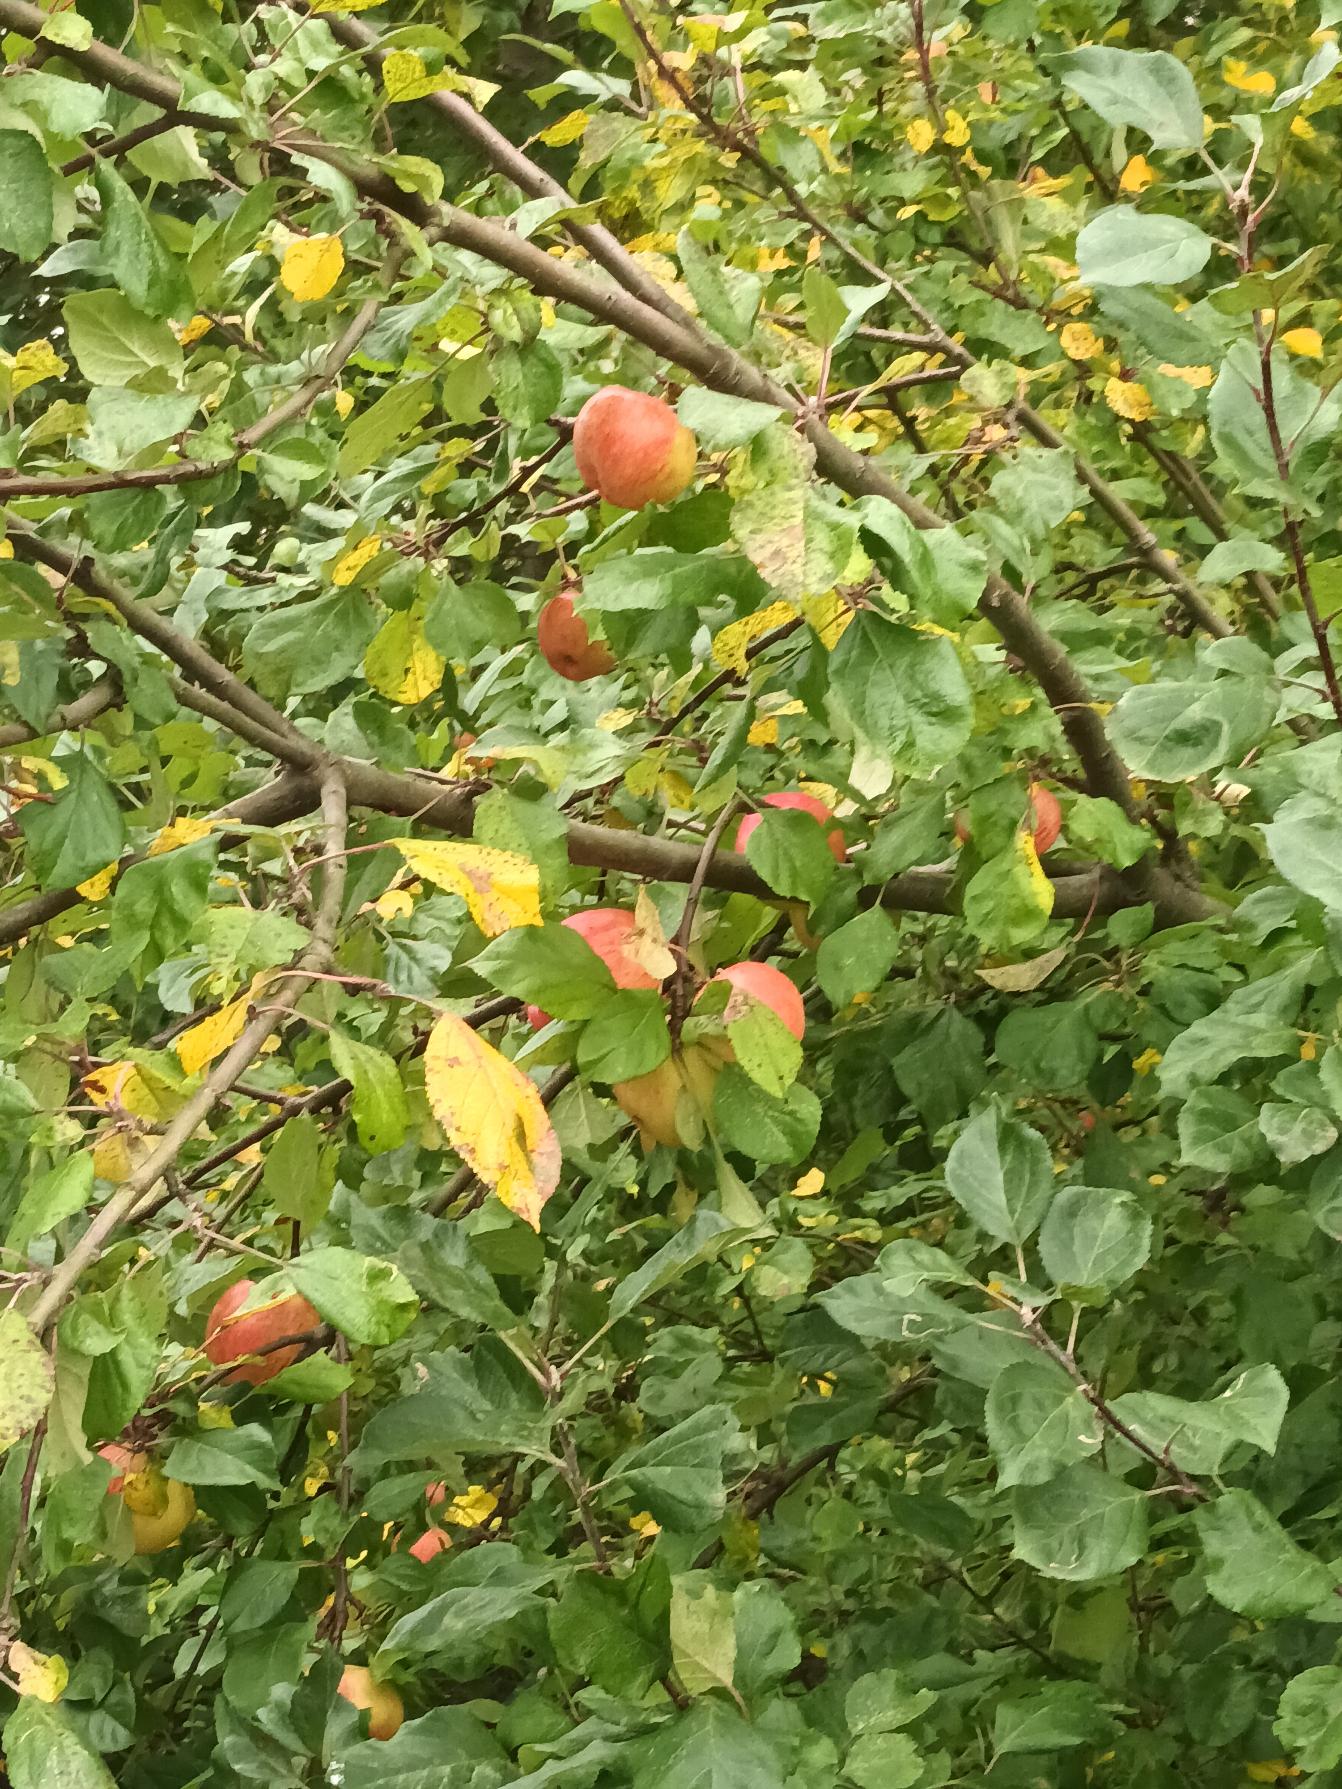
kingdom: Plantae
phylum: Tracheophyta
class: Magnoliopsida
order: Rosales
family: Rosaceae
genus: Malus
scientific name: Malus domestica
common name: Sød-æble
